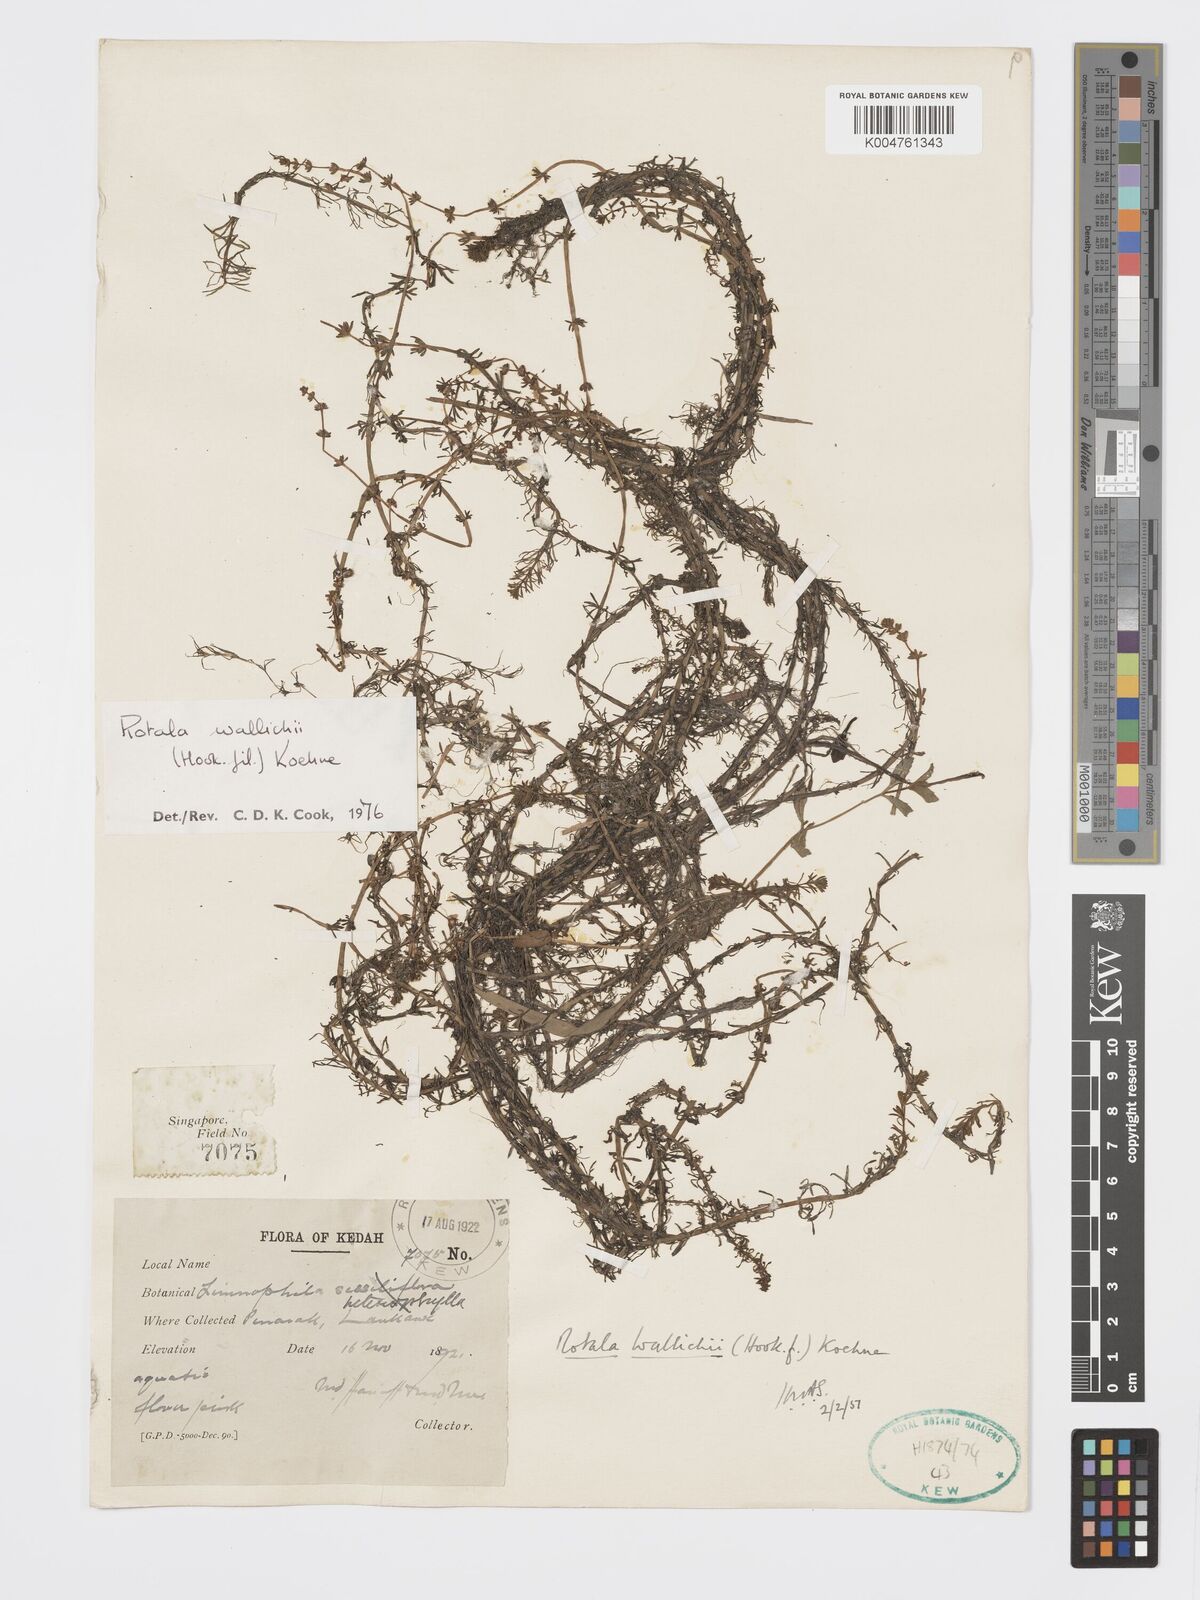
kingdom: Plantae
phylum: Tracheophyta
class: Magnoliopsida
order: Myrtales
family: Lythraceae
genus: Rotala
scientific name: Rotala wallichii
